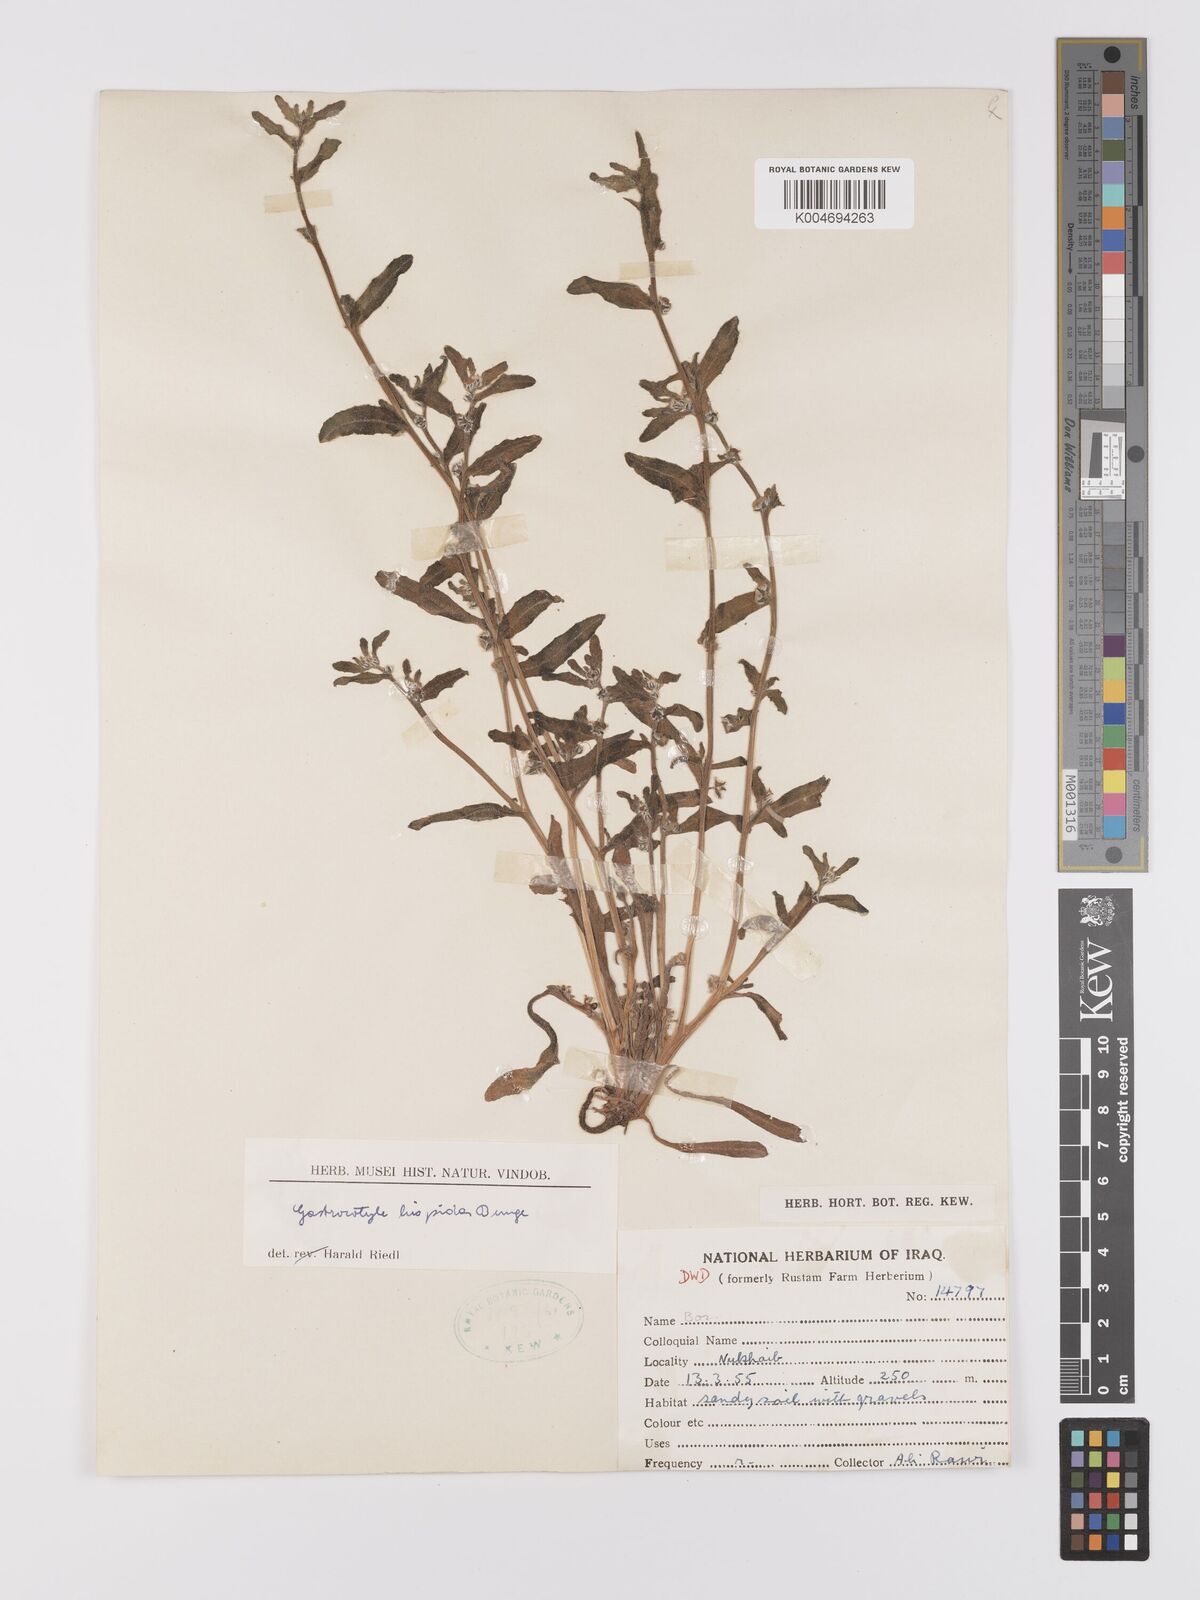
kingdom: Plantae
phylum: Tracheophyta
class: Magnoliopsida
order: Boraginales
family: Boraginaceae
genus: Gastrocotyle
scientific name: Gastrocotyle hispida
